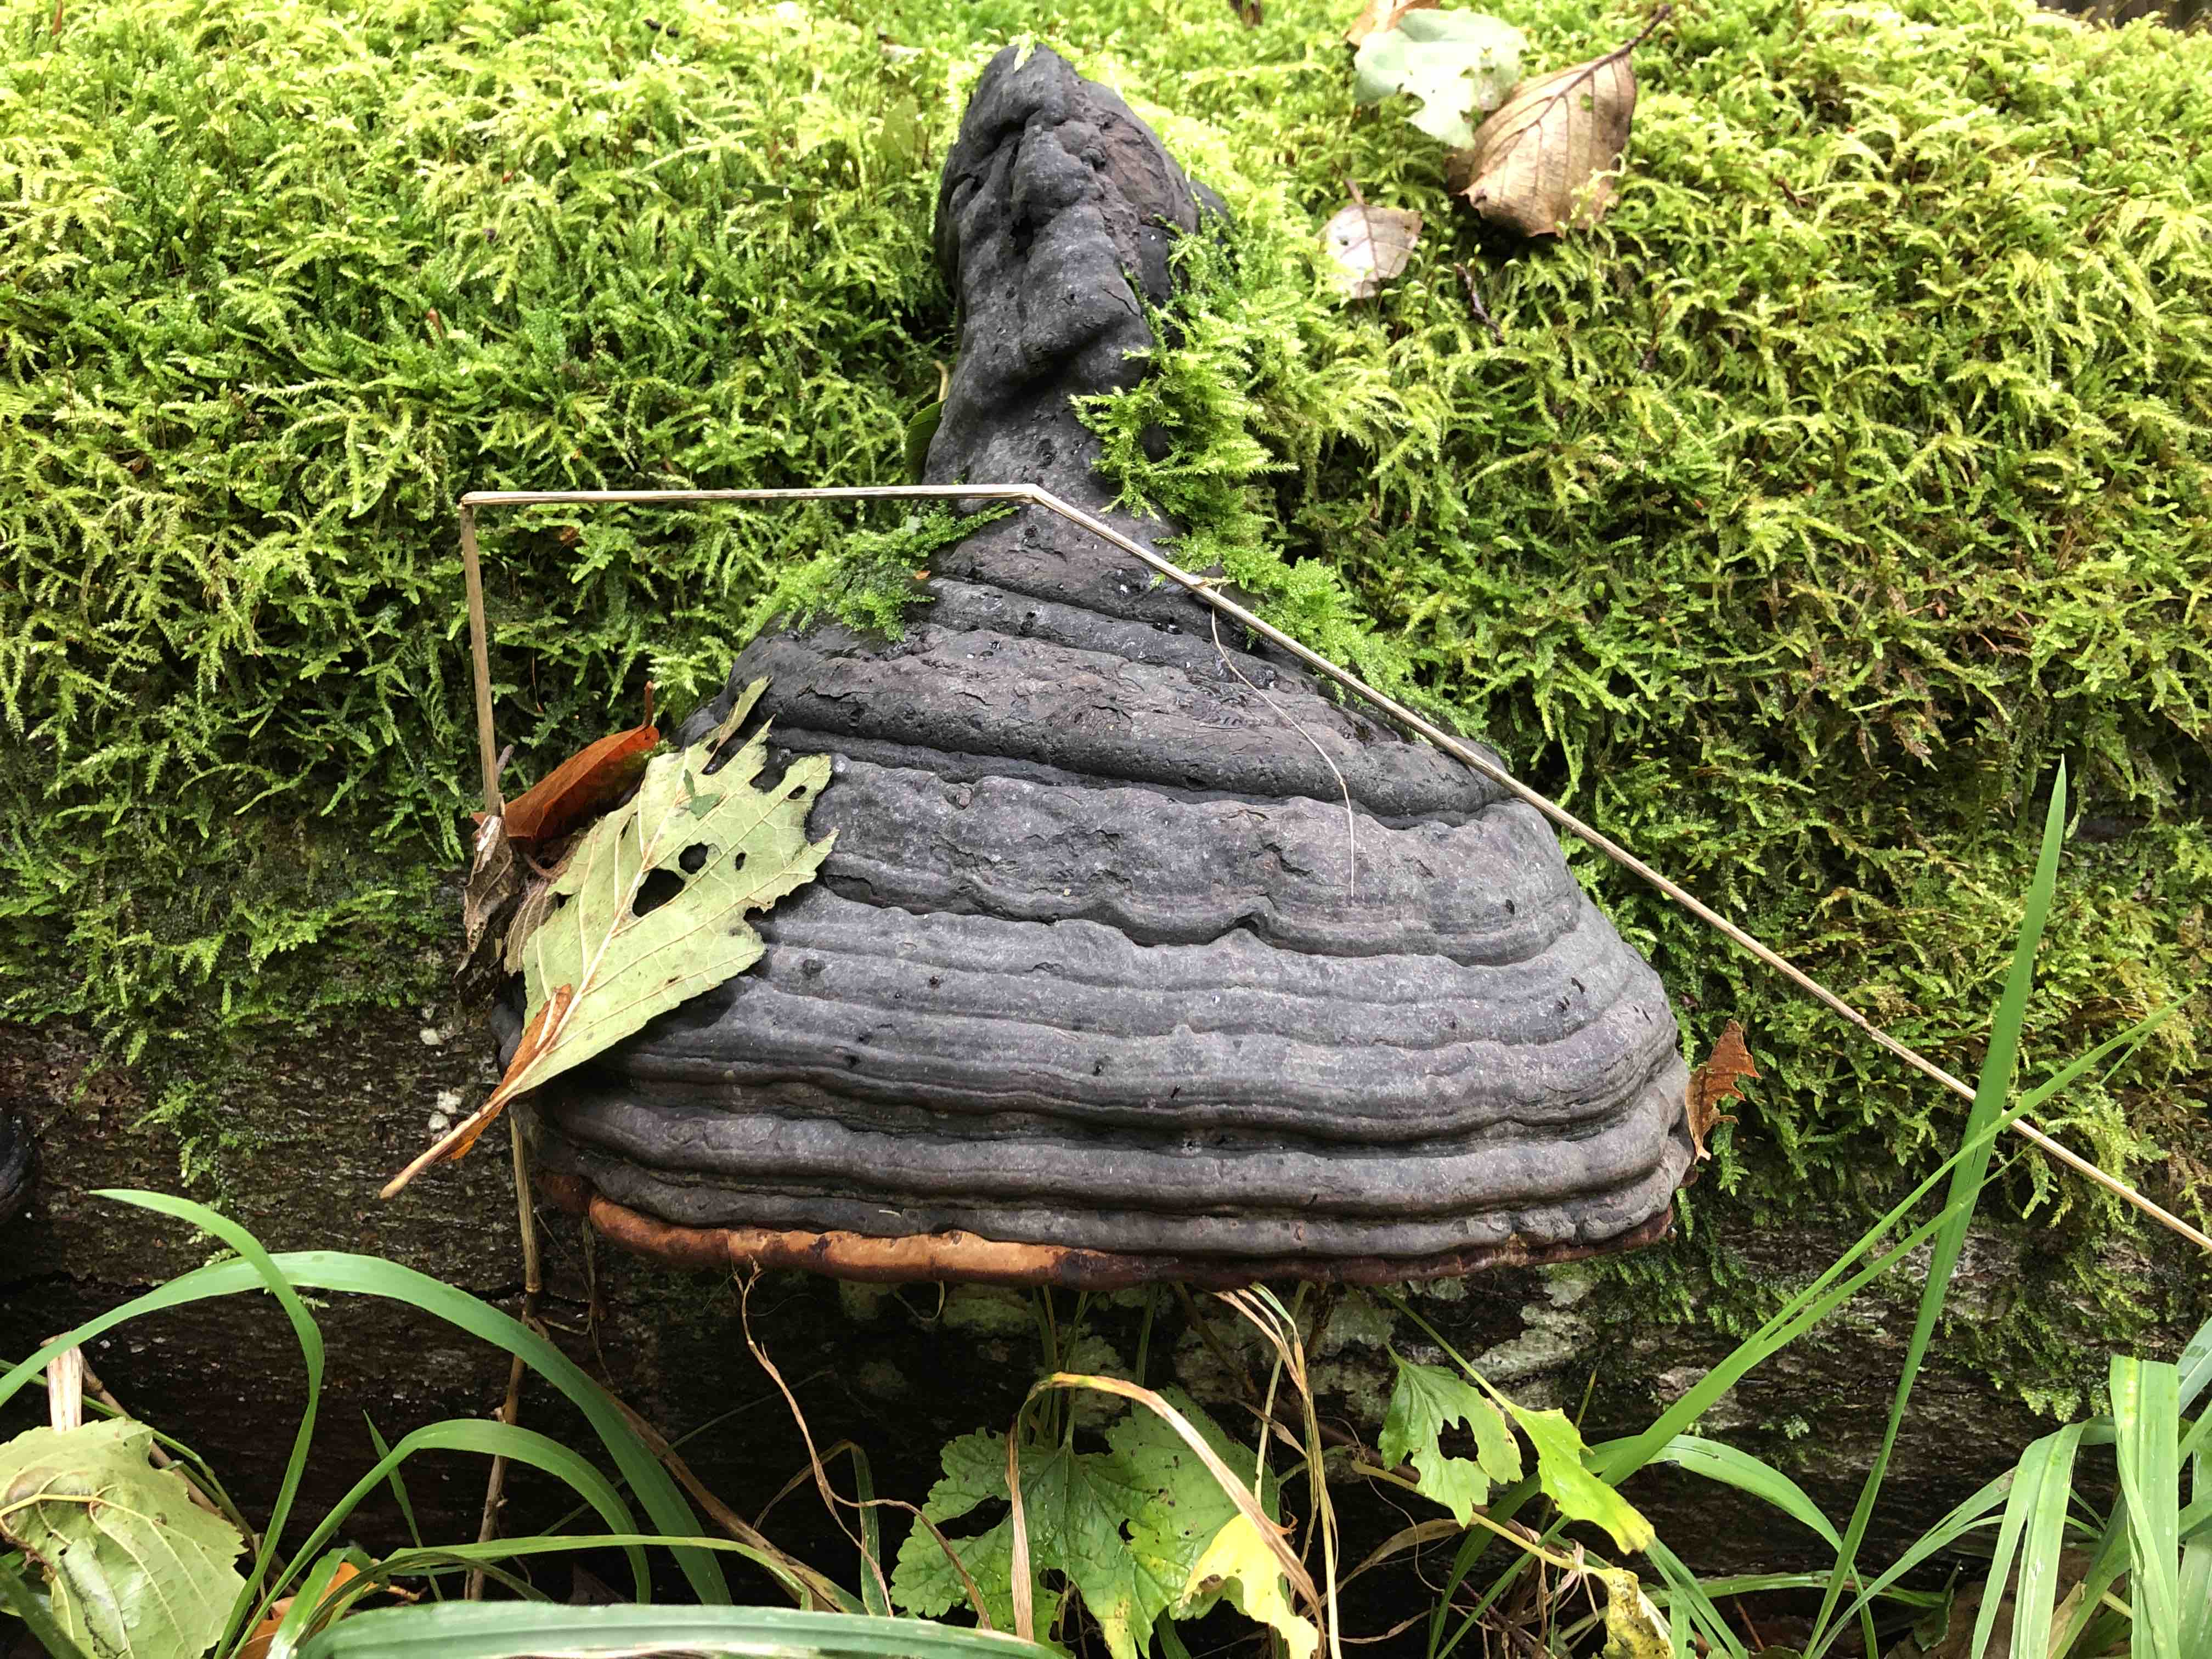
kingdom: Fungi
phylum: Basidiomycota
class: Agaricomycetes
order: Polyporales
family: Polyporaceae
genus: Fomes
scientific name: Fomes fomentarius
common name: tøndersvamp
